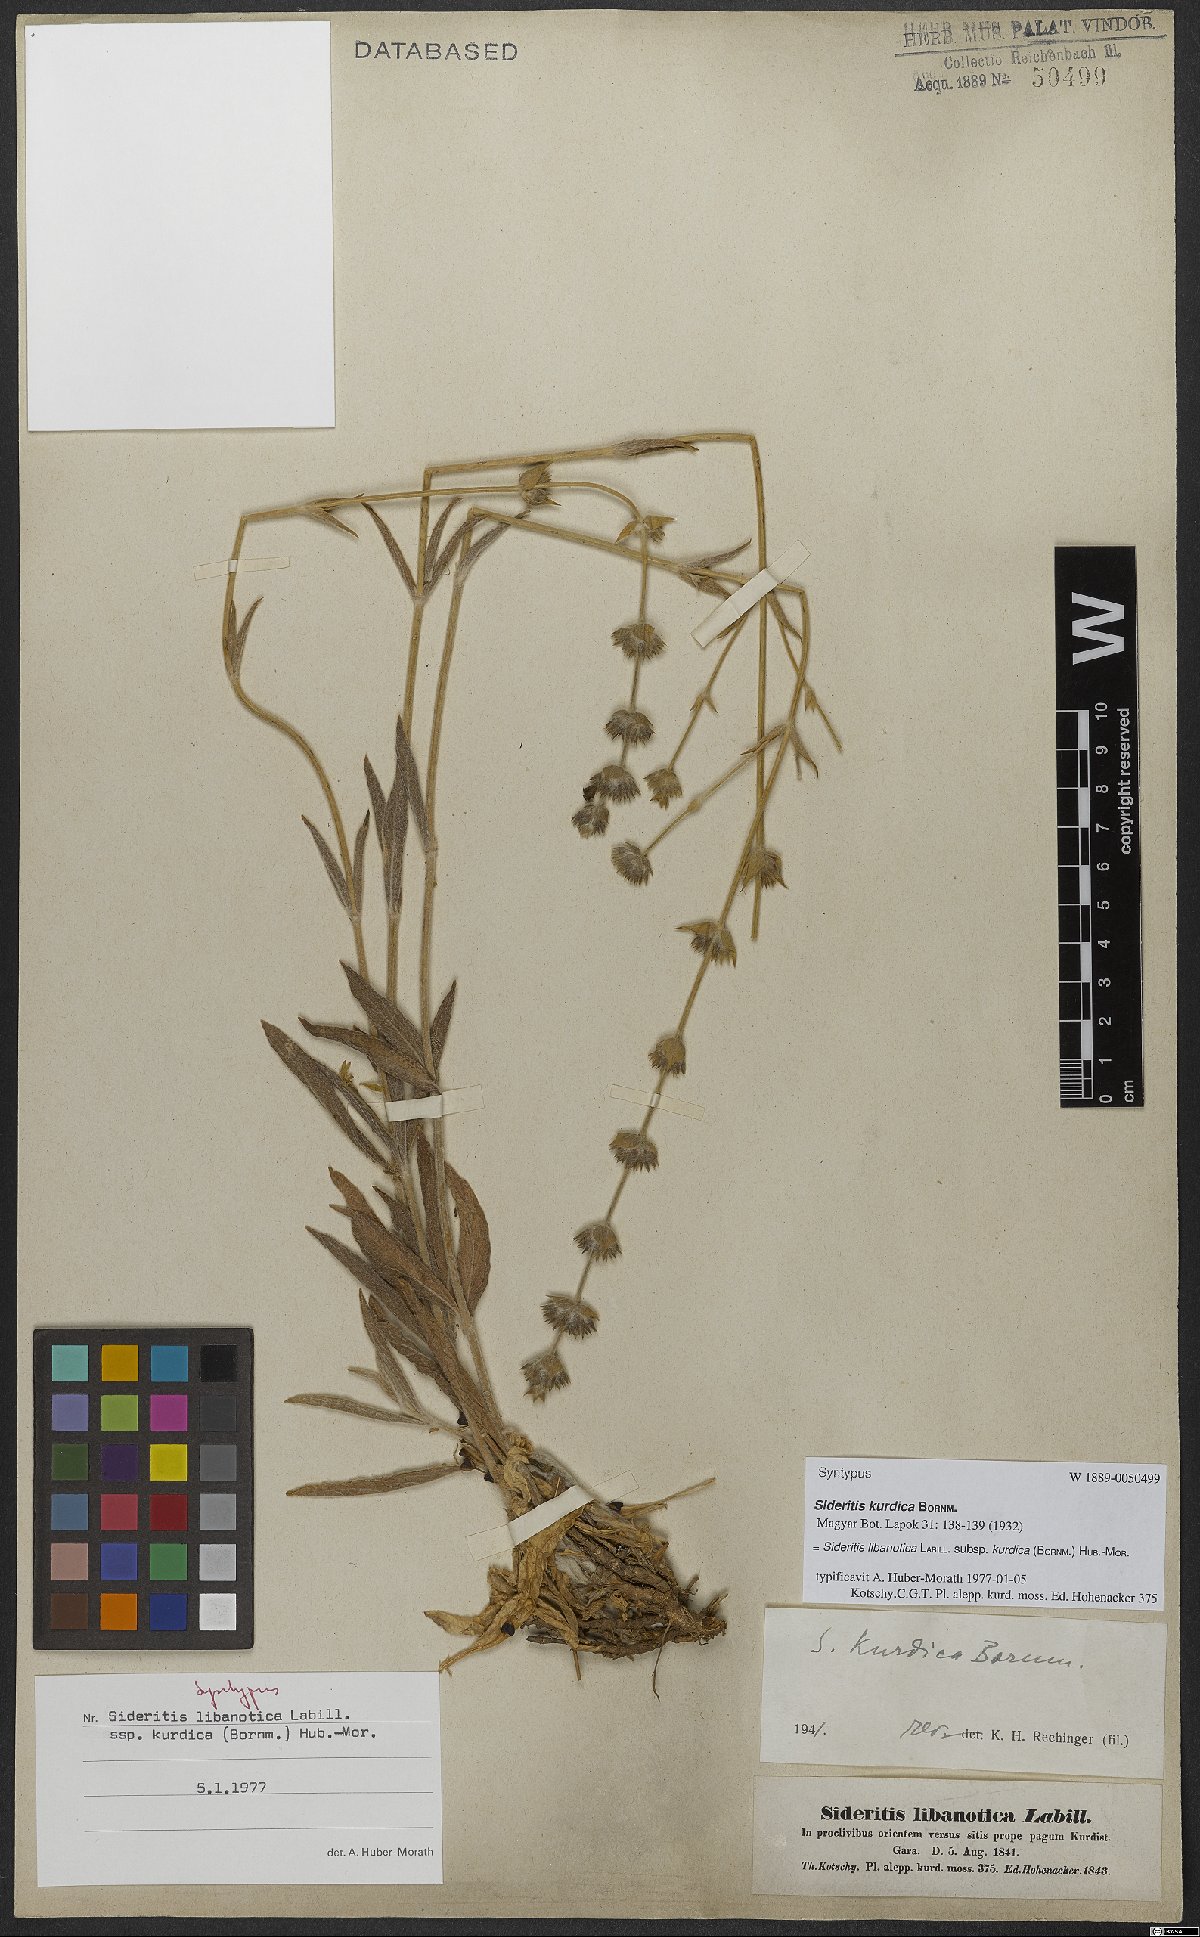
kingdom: Plantae
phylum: Tracheophyta
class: Magnoliopsida
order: Lamiales
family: Lamiaceae
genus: Sideritis
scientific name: Sideritis libanotica
